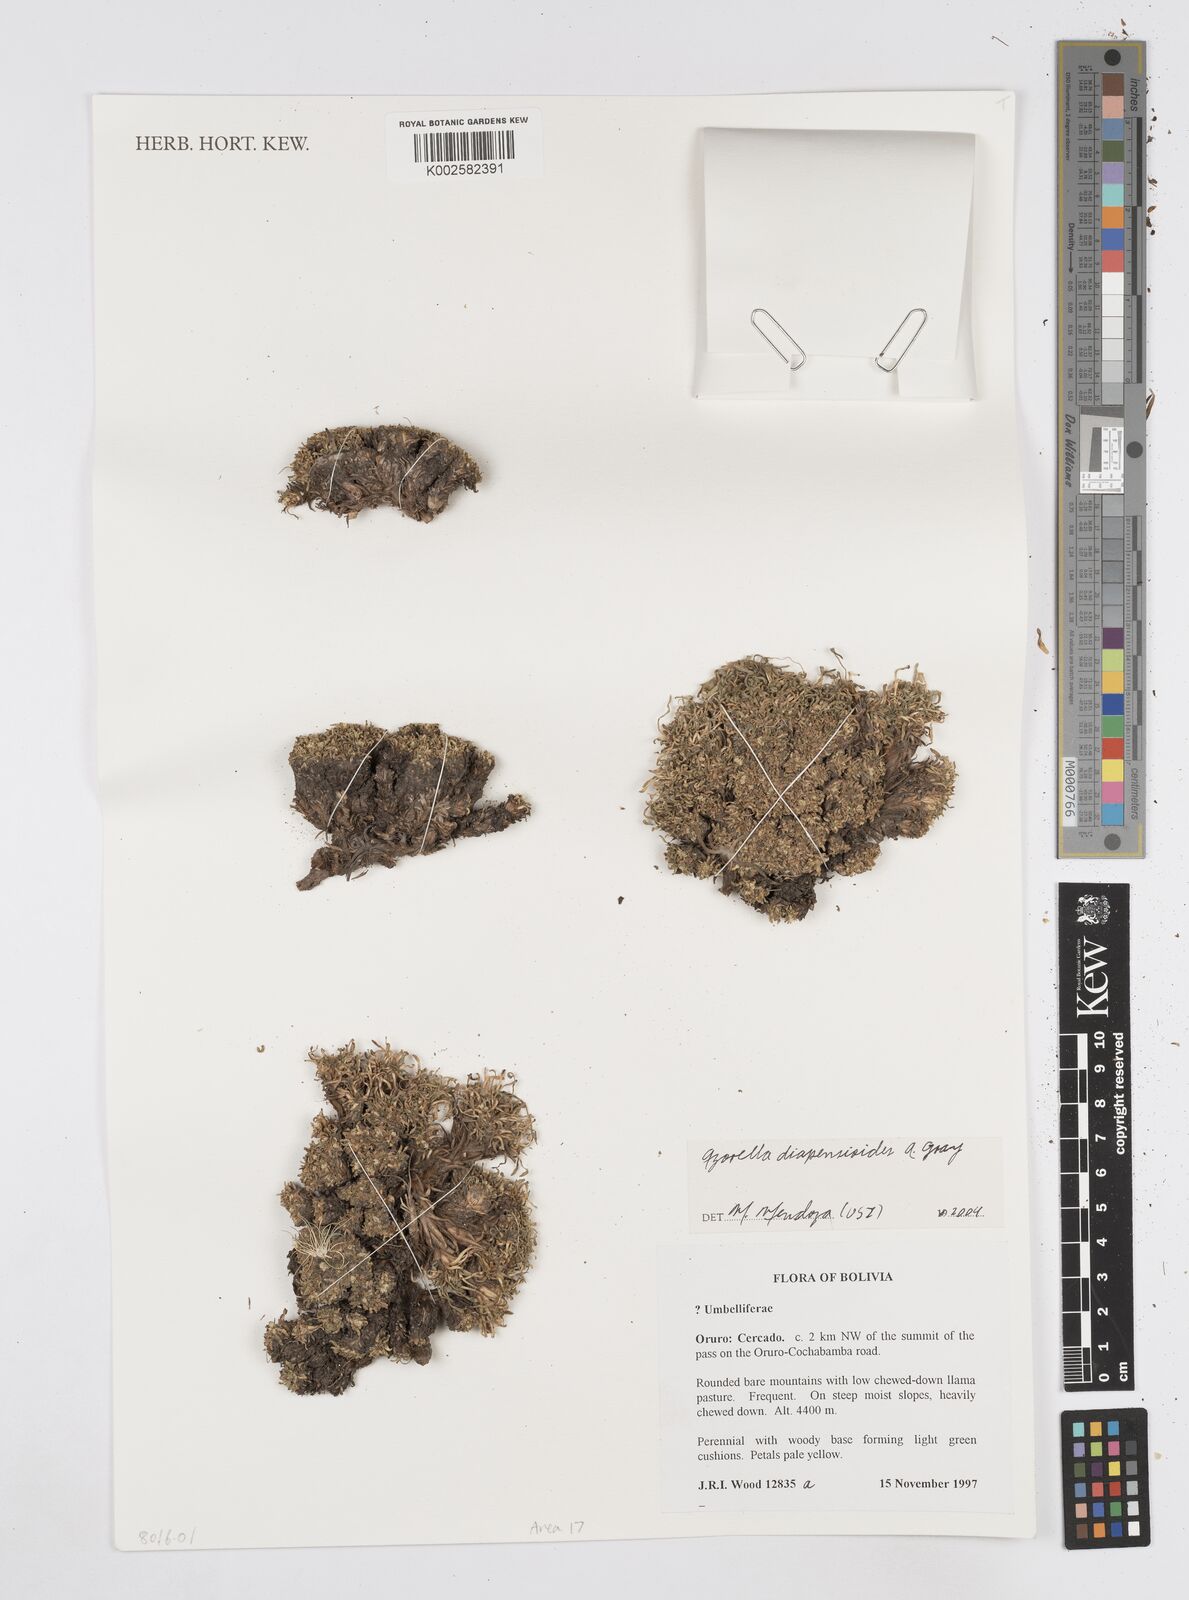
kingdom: Plantae
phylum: Tracheophyta
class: Magnoliopsida
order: Apiales
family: Apiaceae
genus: Azorella
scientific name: Azorella diapensioides
